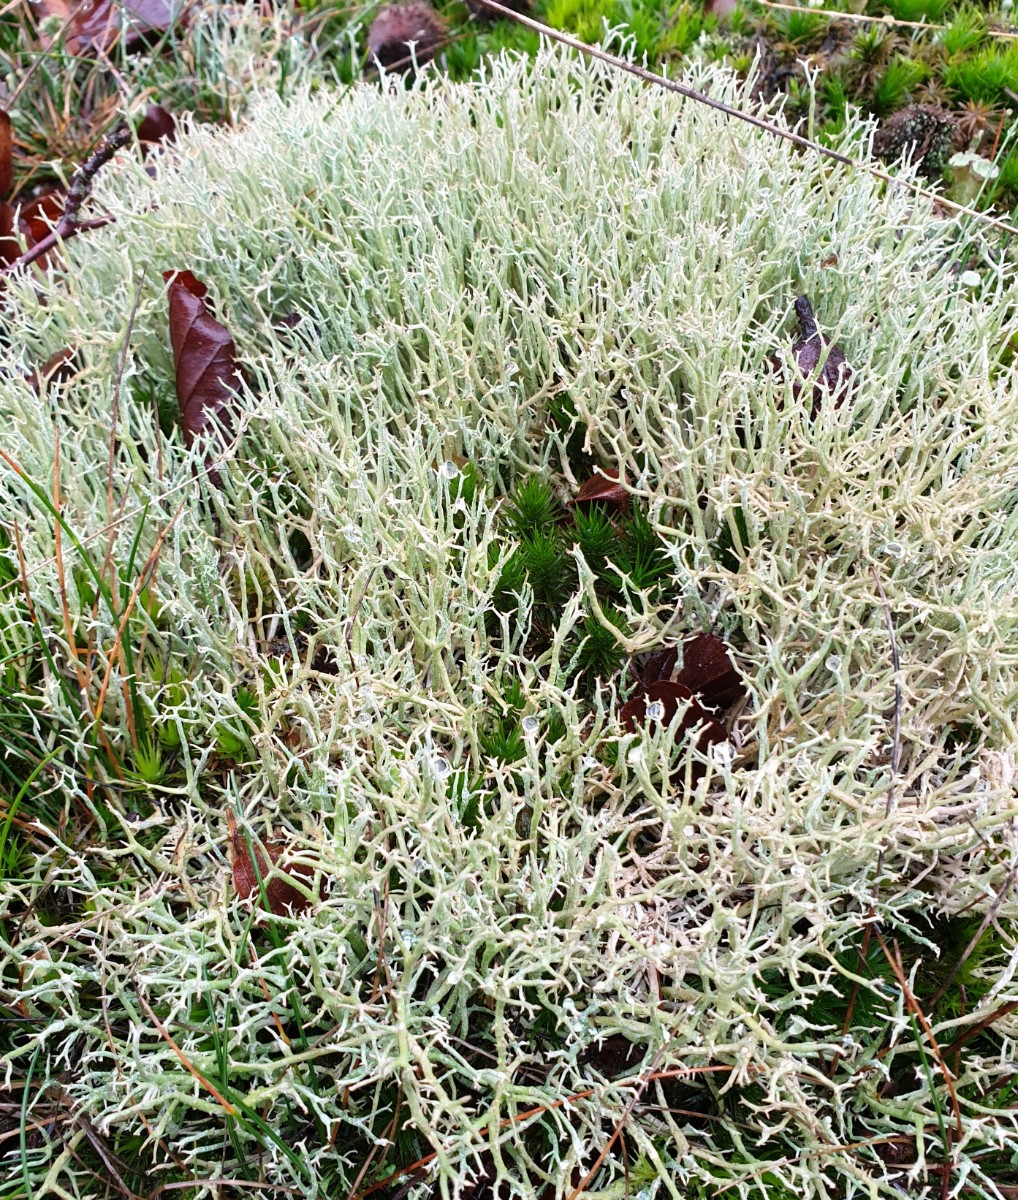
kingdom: Fungi
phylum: Ascomycota
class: Lecanoromycetes
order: Lecanorales
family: Cladoniaceae
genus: Cladonia
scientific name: Cladonia rangiformis
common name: spættet bægerlav
